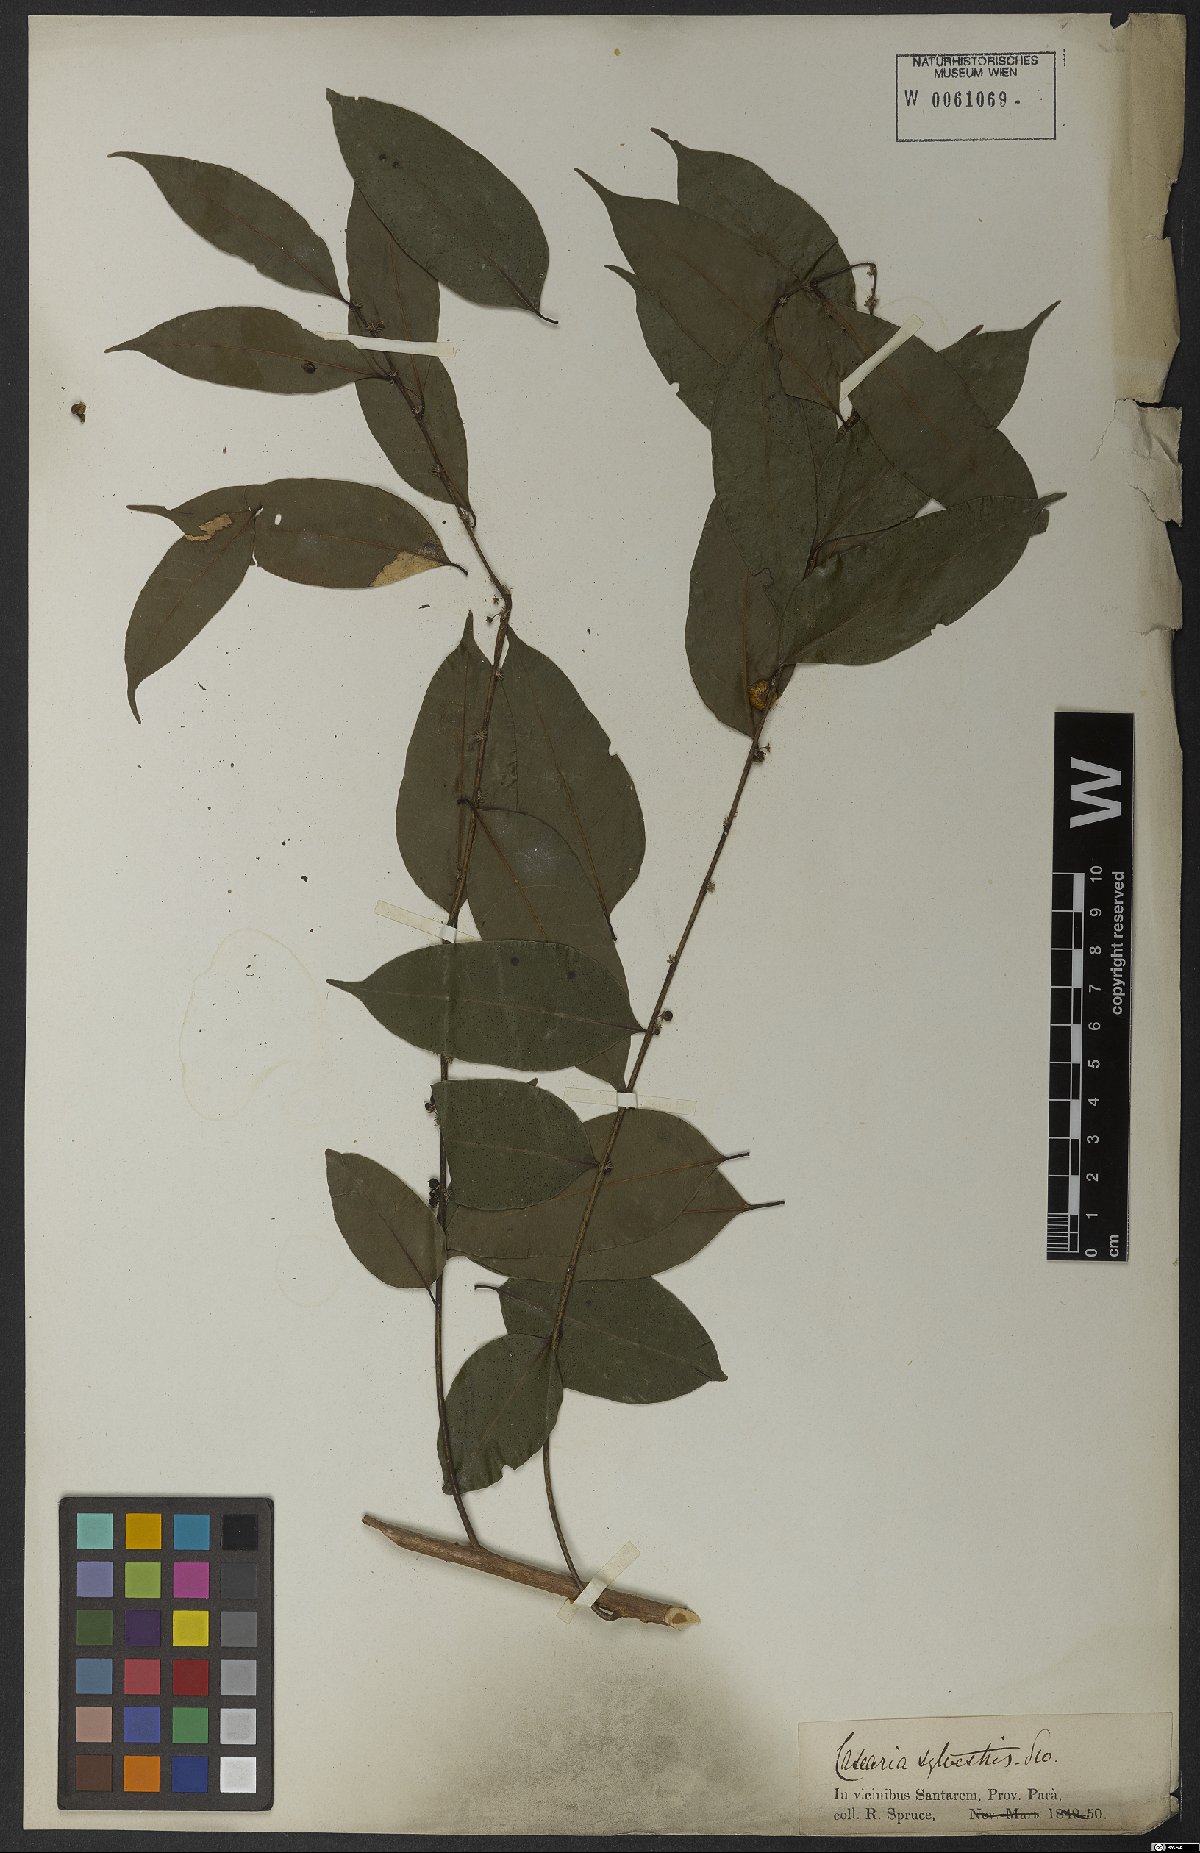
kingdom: Plantae
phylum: Tracheophyta
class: Magnoliopsida
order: Malpighiales
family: Salicaceae
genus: Casearia
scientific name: Casearia sylvestris
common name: Wild sage
